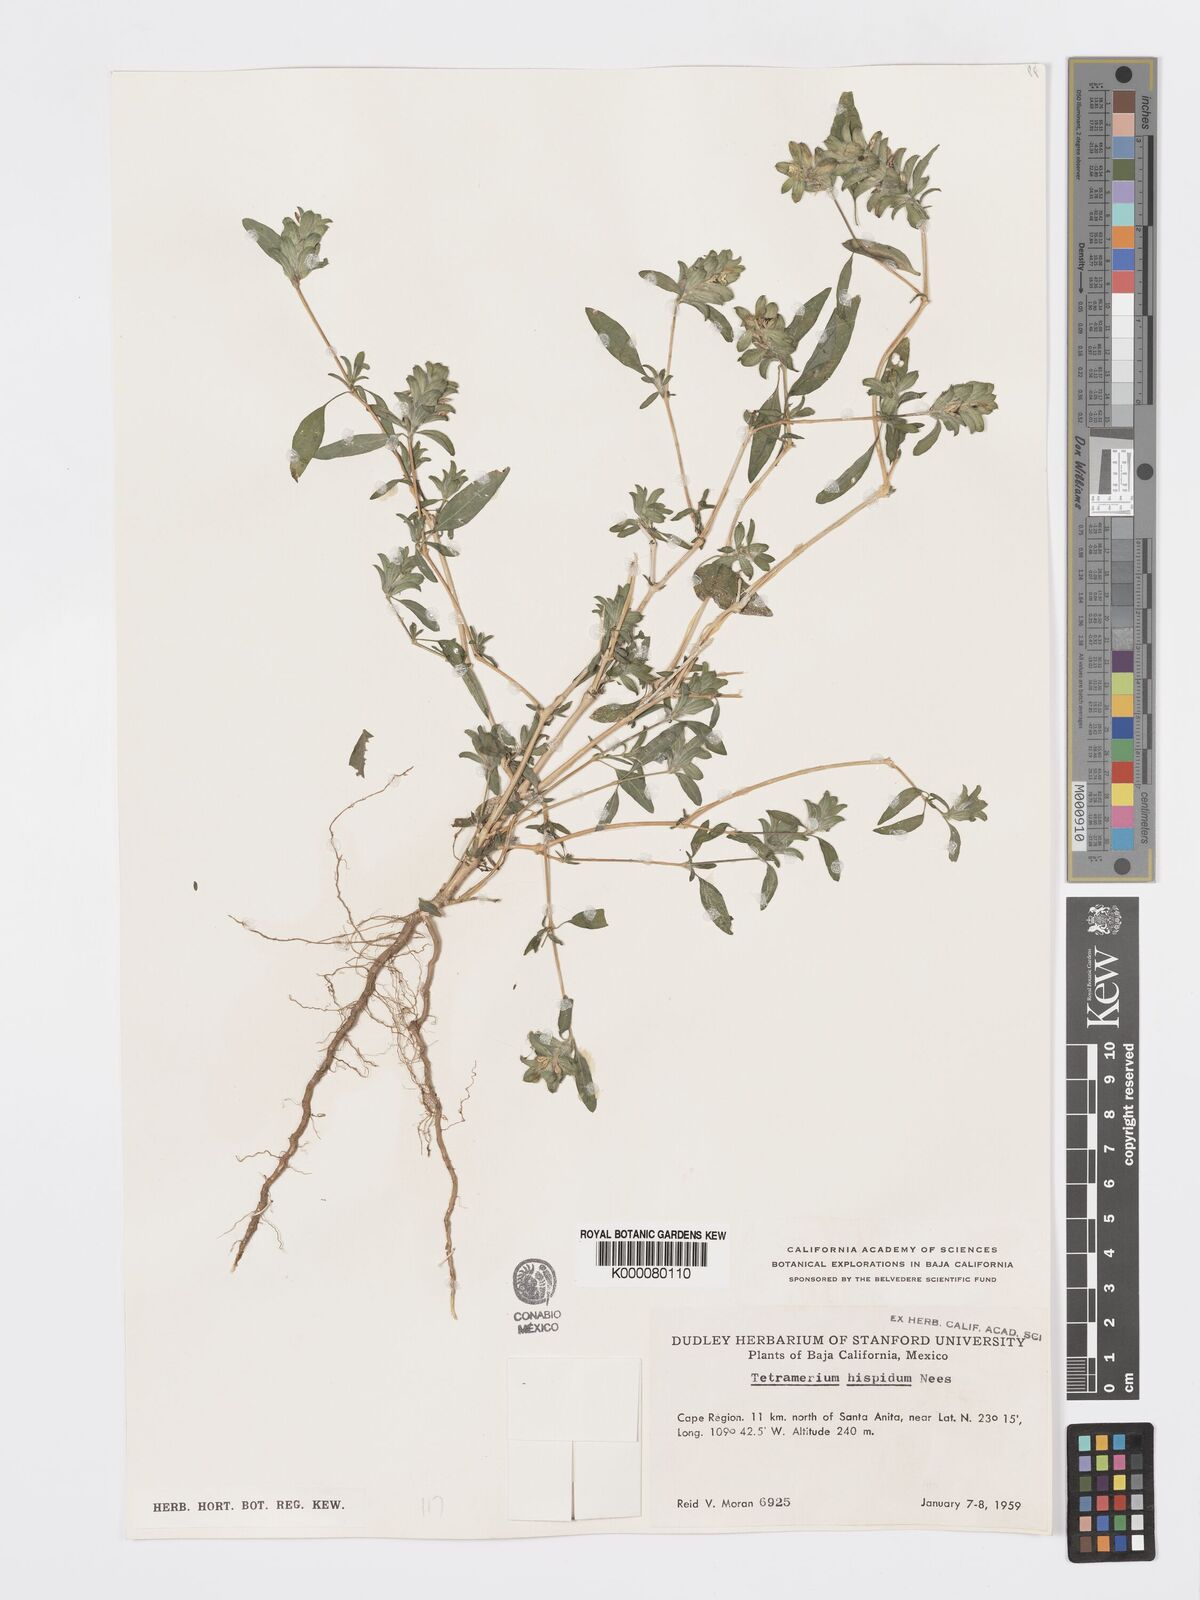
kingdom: Plantae
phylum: Tracheophyta
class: Magnoliopsida
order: Lamiales
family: Acanthaceae
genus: Tetramerium
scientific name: Tetramerium nervosum
